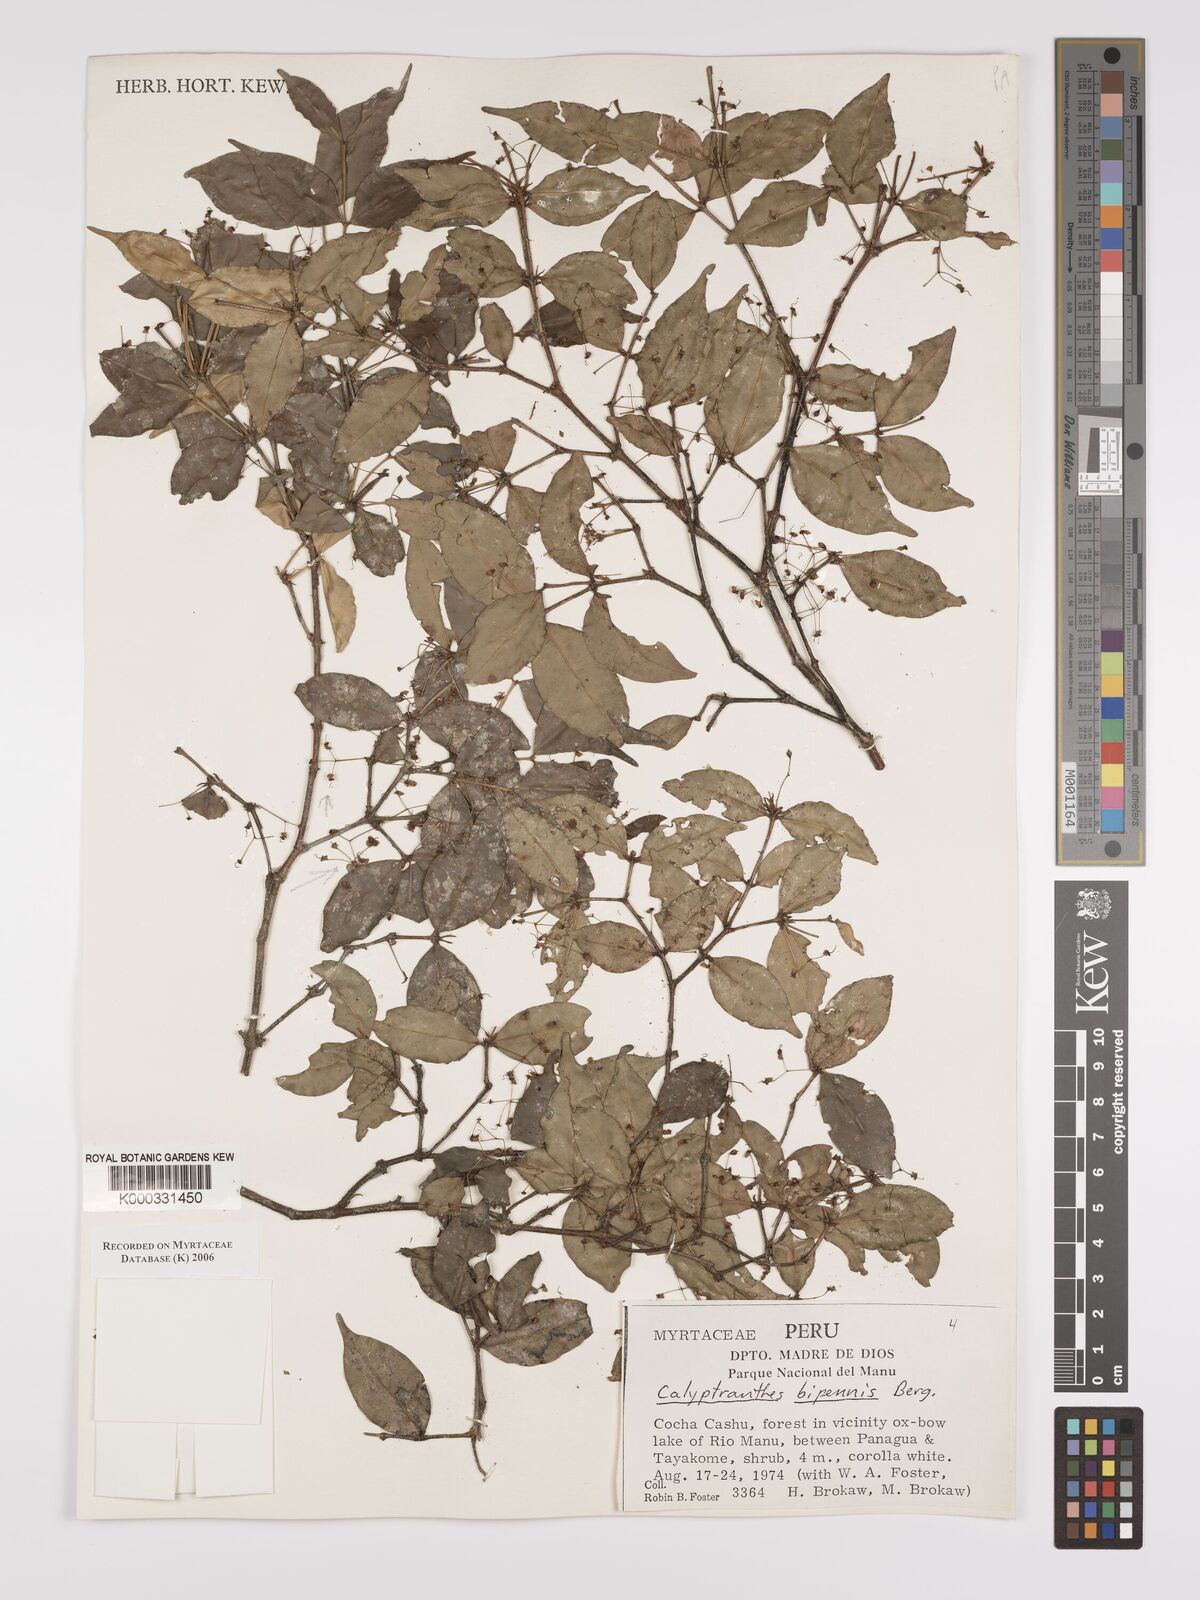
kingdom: Plantae
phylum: Tracheophyta
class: Magnoliopsida
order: Myrtales
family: Myrtaceae
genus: Myrcia
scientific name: Myrcia tenuiflora
